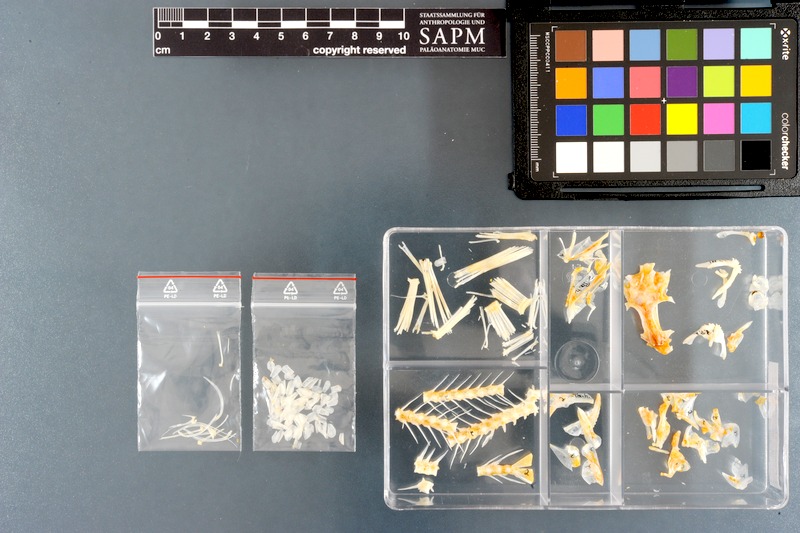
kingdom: Animalia
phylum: Chordata
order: Perciformes
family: Pinguipedidae
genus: Parapercis
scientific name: Parapercis hexophtalma
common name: Speckled sandperch
